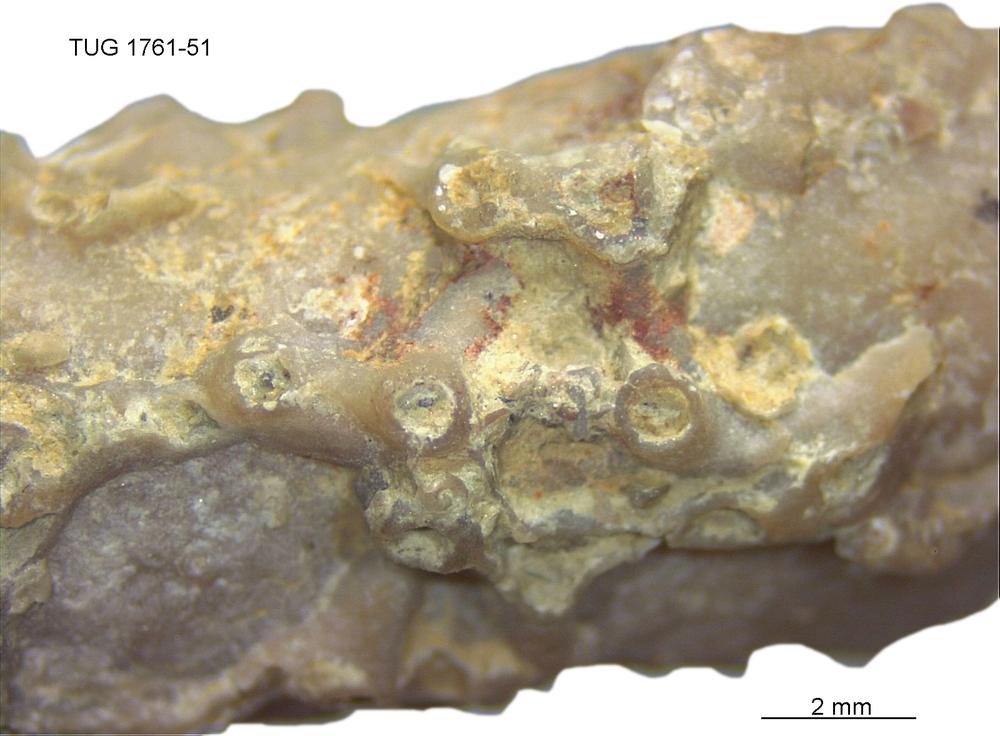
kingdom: Animalia
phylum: Cnidaria
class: Anthozoa
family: Auloporidae
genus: Aulopora
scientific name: Aulopora
